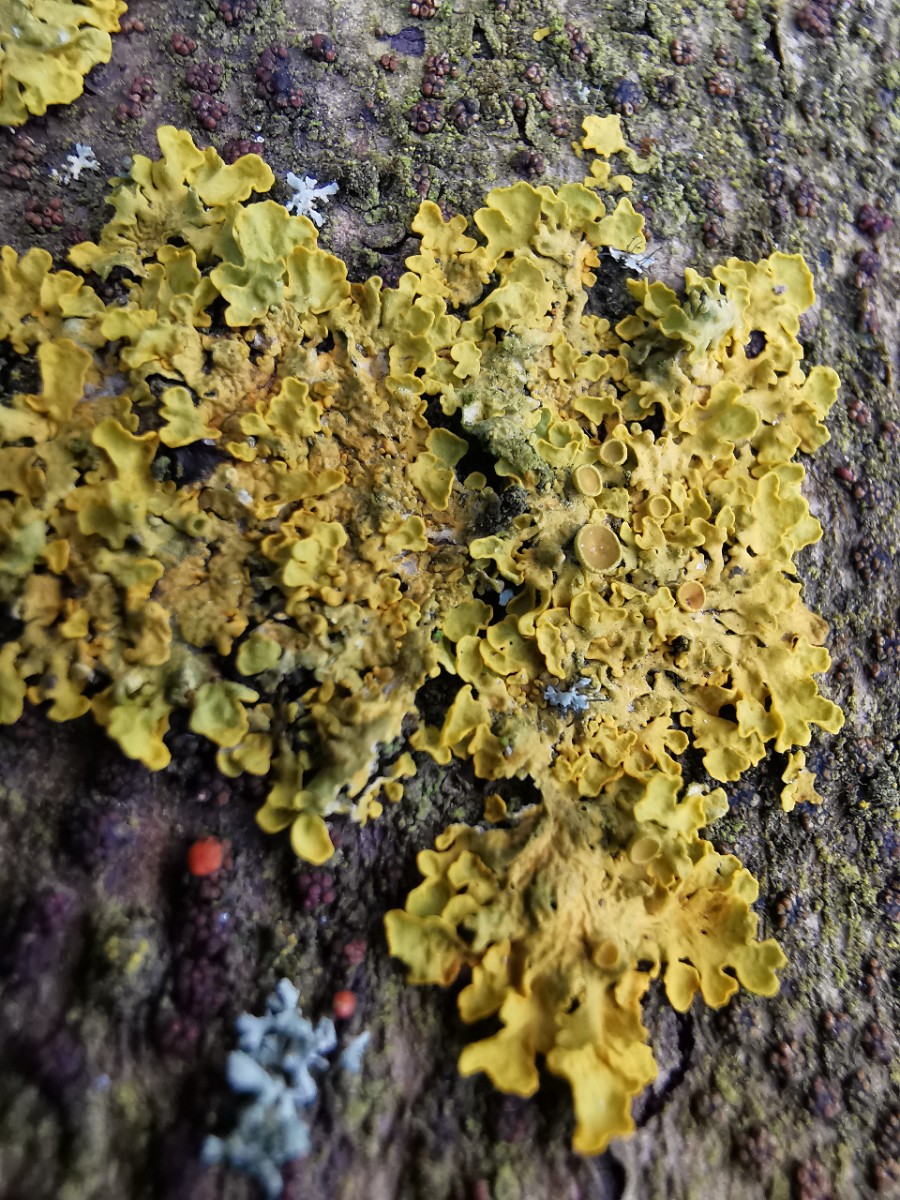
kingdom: Fungi
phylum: Ascomycota
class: Lecanoromycetes
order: Teloschistales
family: Teloschistaceae
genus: Xanthoria
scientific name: Xanthoria parietina
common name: almindelig væggelav
